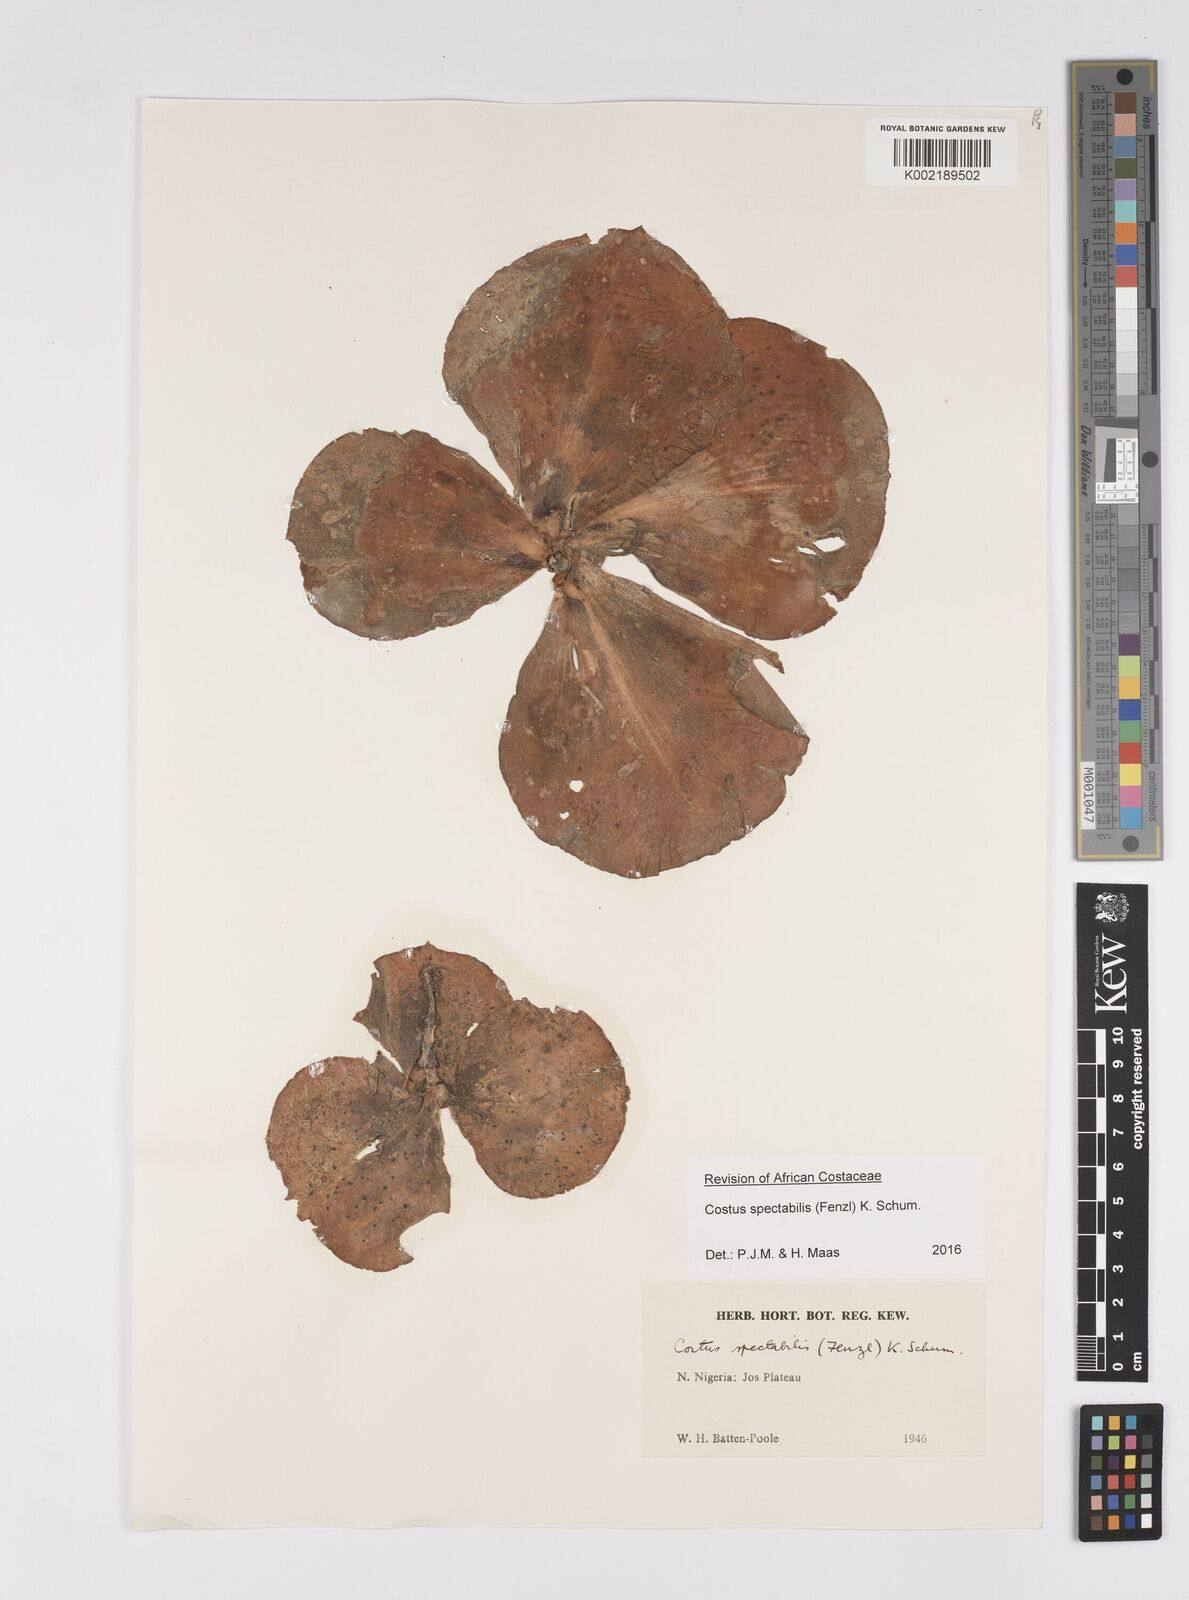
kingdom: Plantae
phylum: Tracheophyta
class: Liliopsida
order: Zingiberales
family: Costaceae
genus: Costus
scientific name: Costus spectabilis
